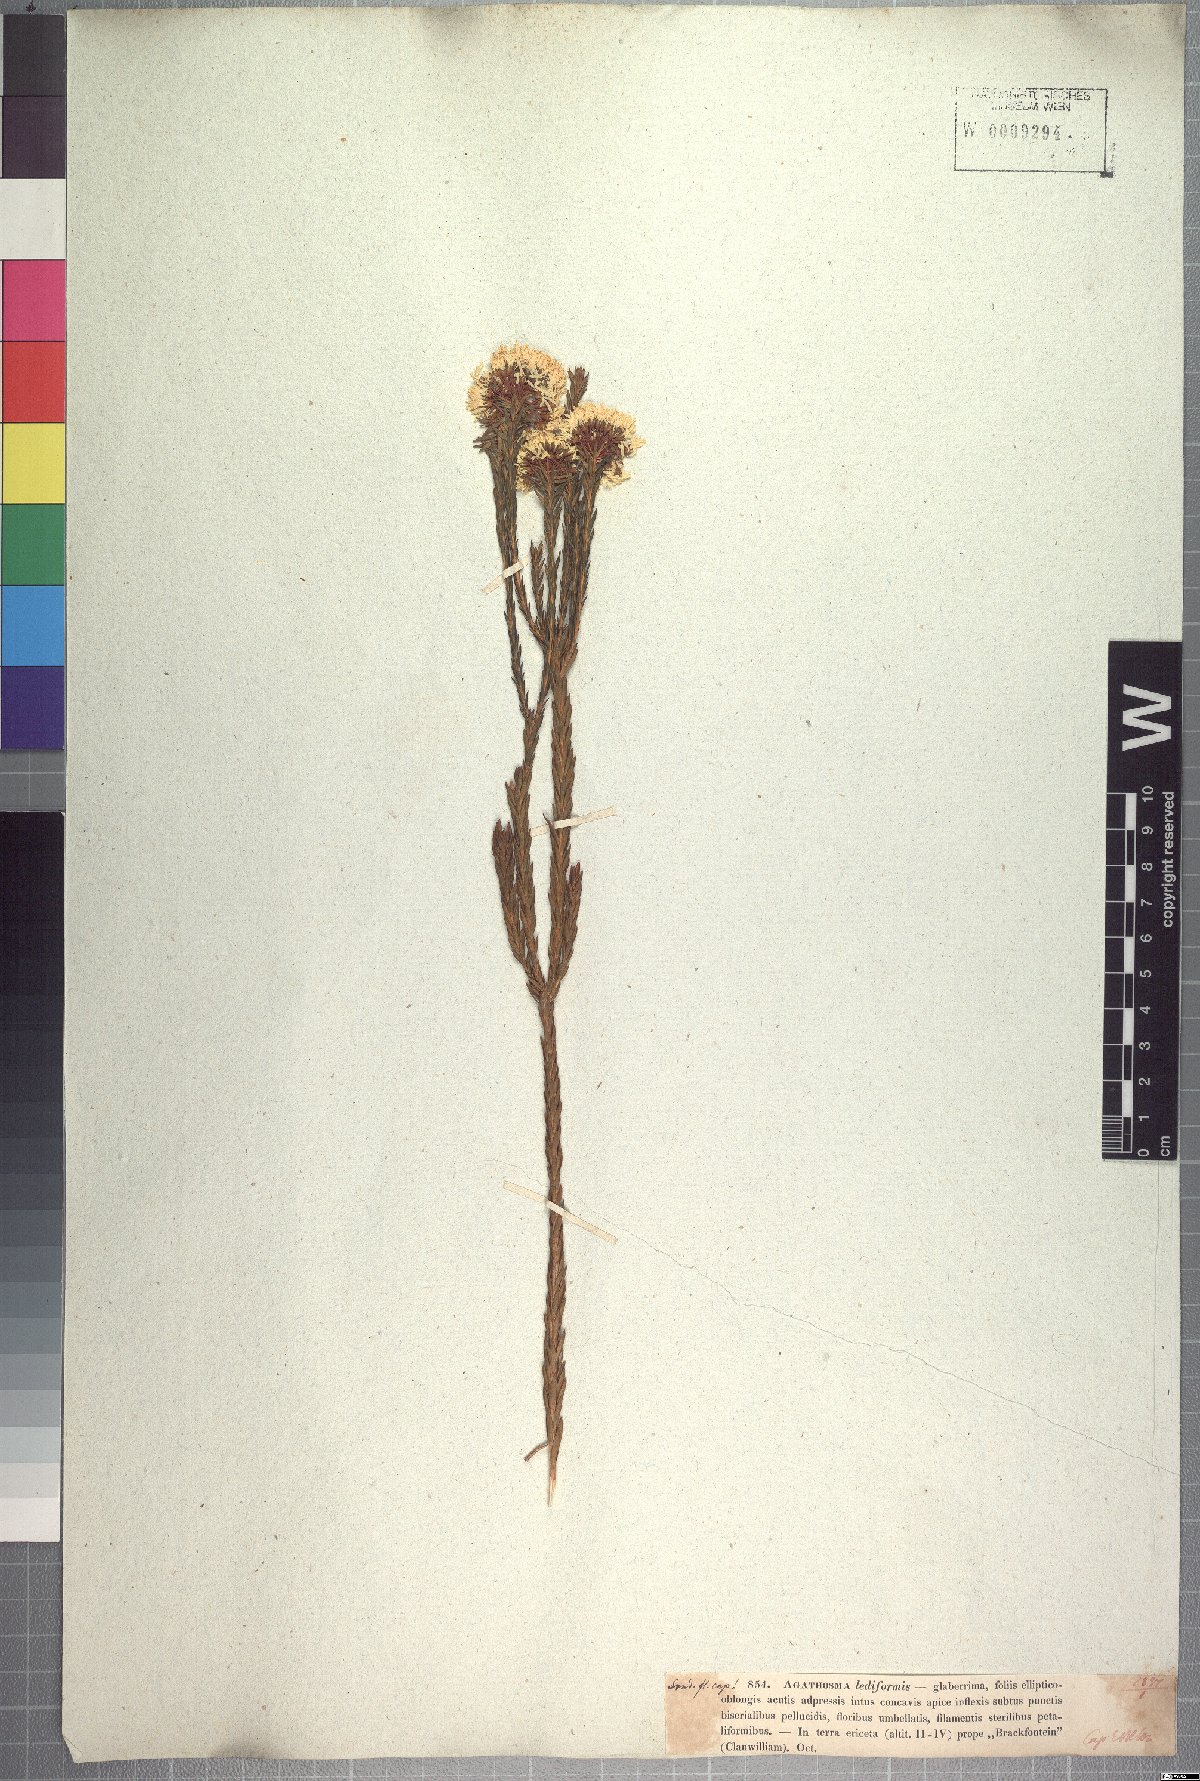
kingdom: Plantae
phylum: Tracheophyta
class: Magnoliopsida
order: Sapindales
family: Rutaceae
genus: Agathosma
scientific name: Agathosma bifida
